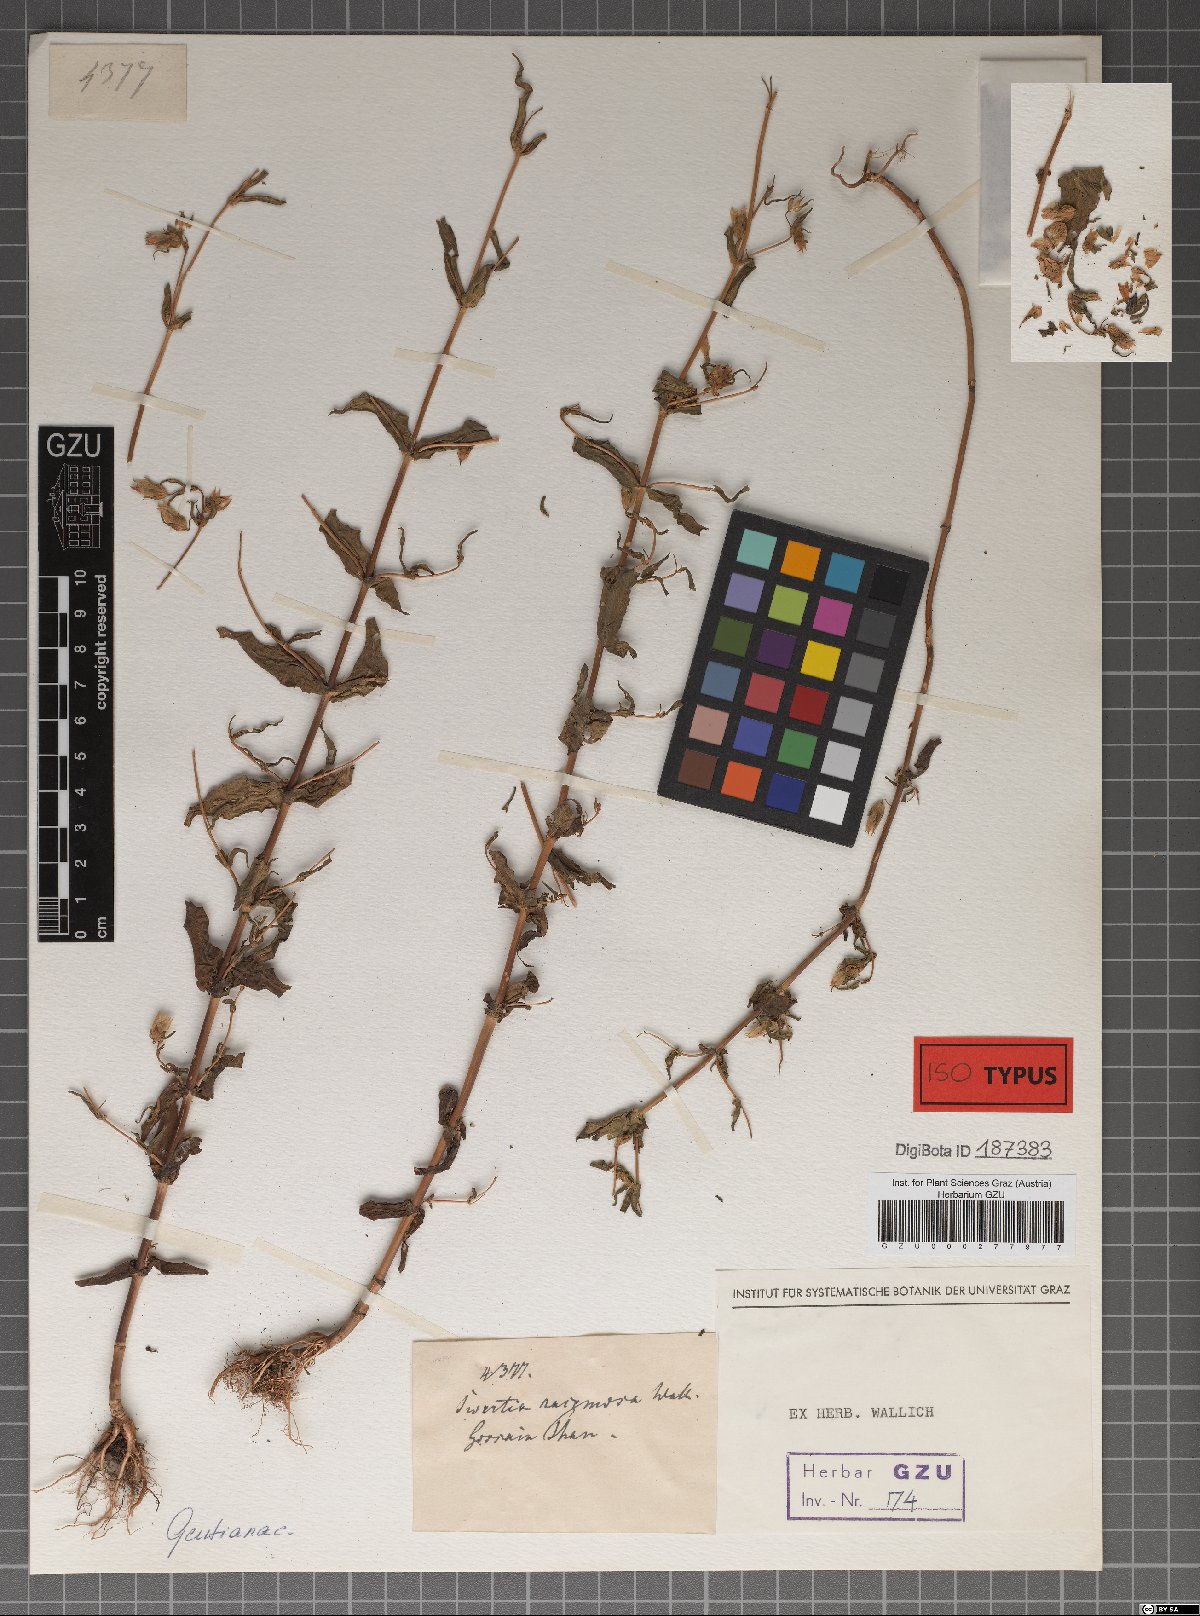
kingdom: Plantae
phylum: Tracheophyta
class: Magnoliopsida
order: Gentianales
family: Gentianaceae
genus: Swertia
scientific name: Swertia racemosa
